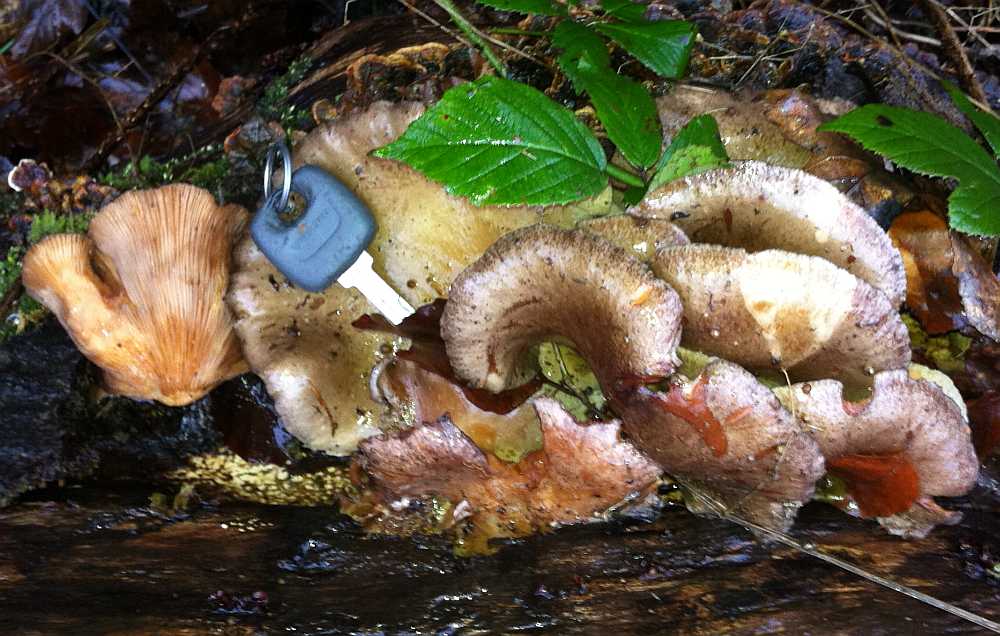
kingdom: Fungi
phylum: Basidiomycota
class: Agaricomycetes
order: Agaricales
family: Sarcomyxaceae
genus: Sarcomyxa
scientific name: Sarcomyxa serotina
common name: gummihat
